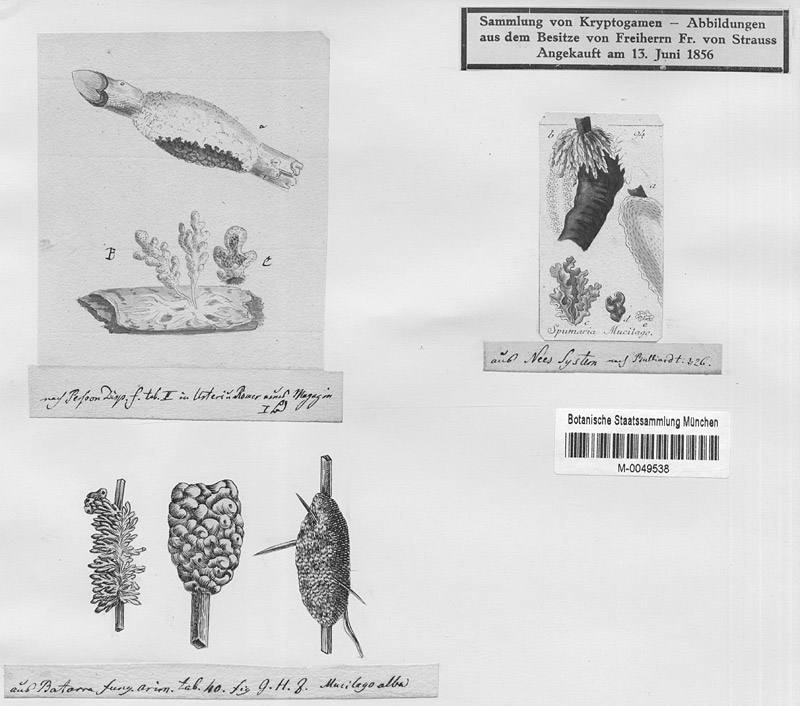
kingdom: Protozoa
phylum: Mycetozoa
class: Myxomycetes
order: Physarales
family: Didymiaceae
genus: Mucilago
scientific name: Mucilago crustacea
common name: Dog vomit slime mould
